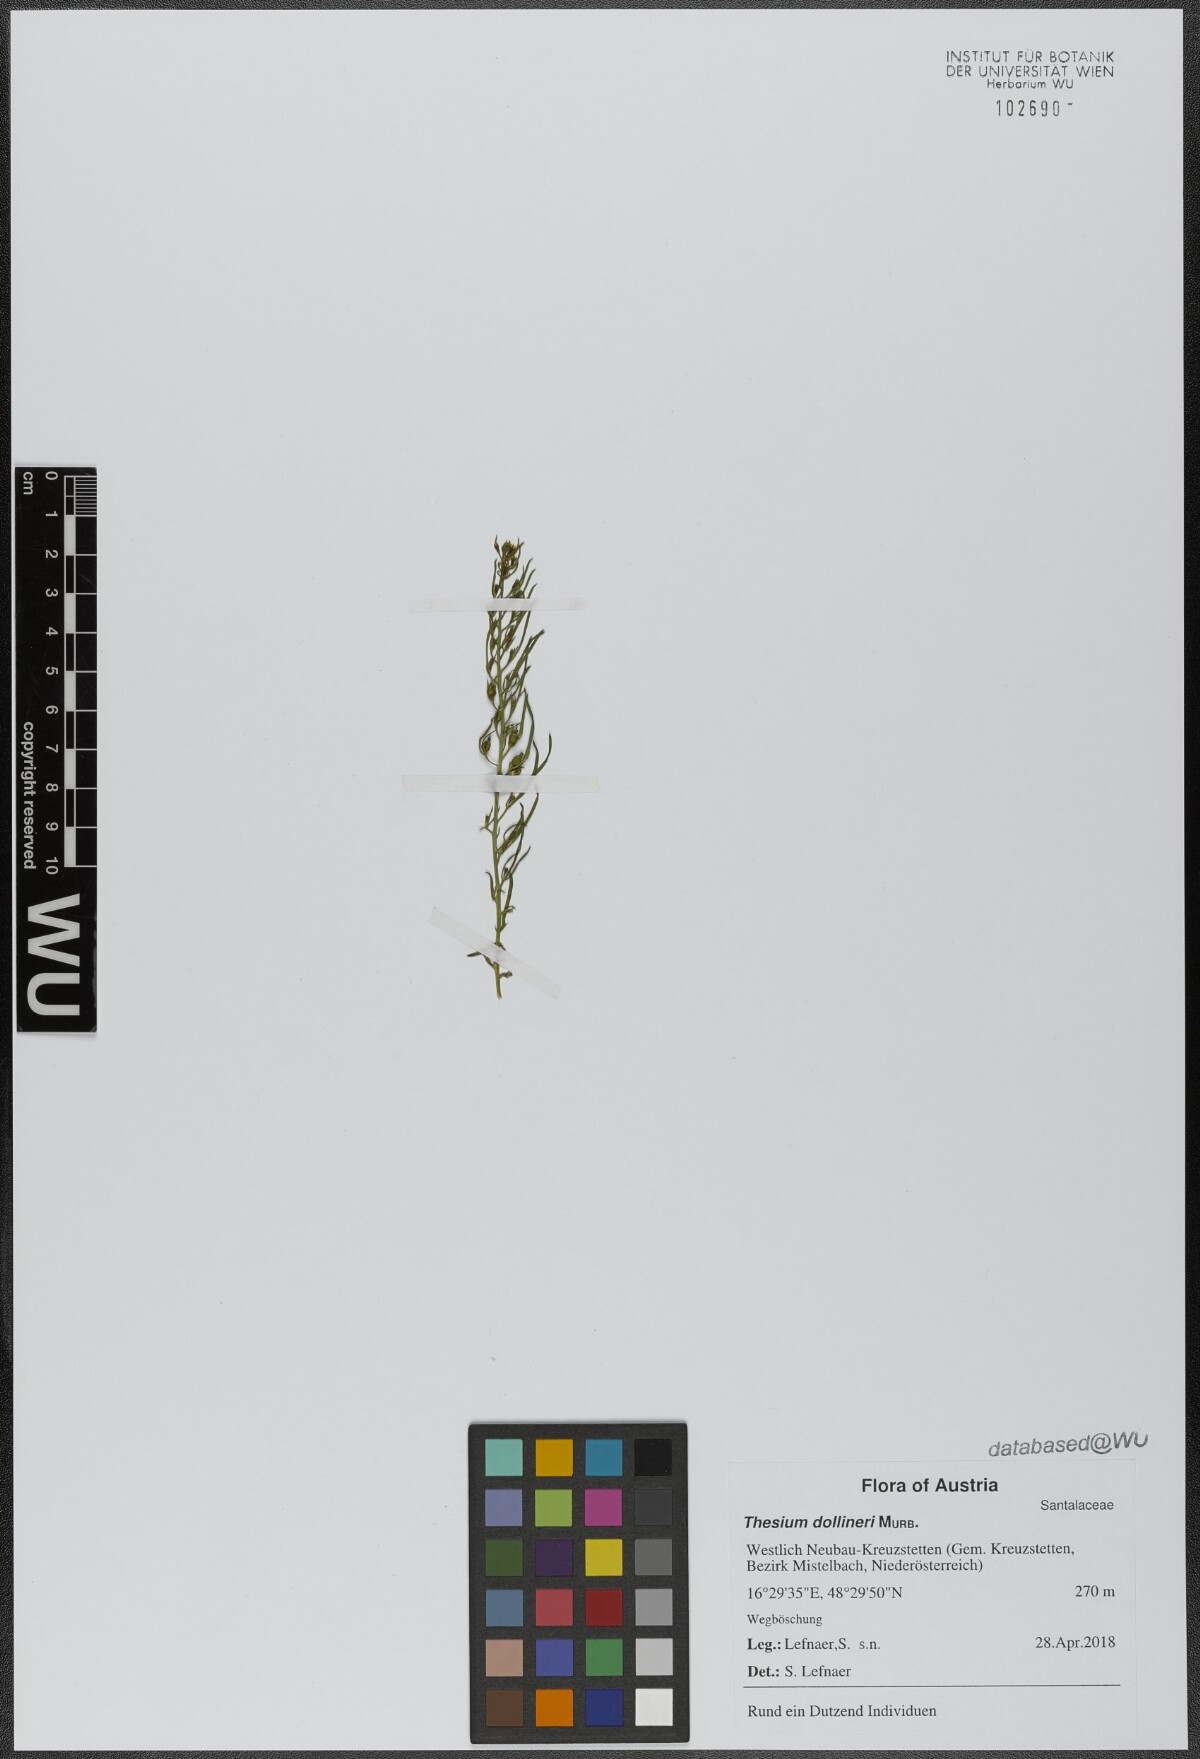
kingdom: Plantae
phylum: Tracheophyta
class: Magnoliopsida
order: Santalales
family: Thesiaceae
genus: Thesium
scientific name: Thesium dollineri
